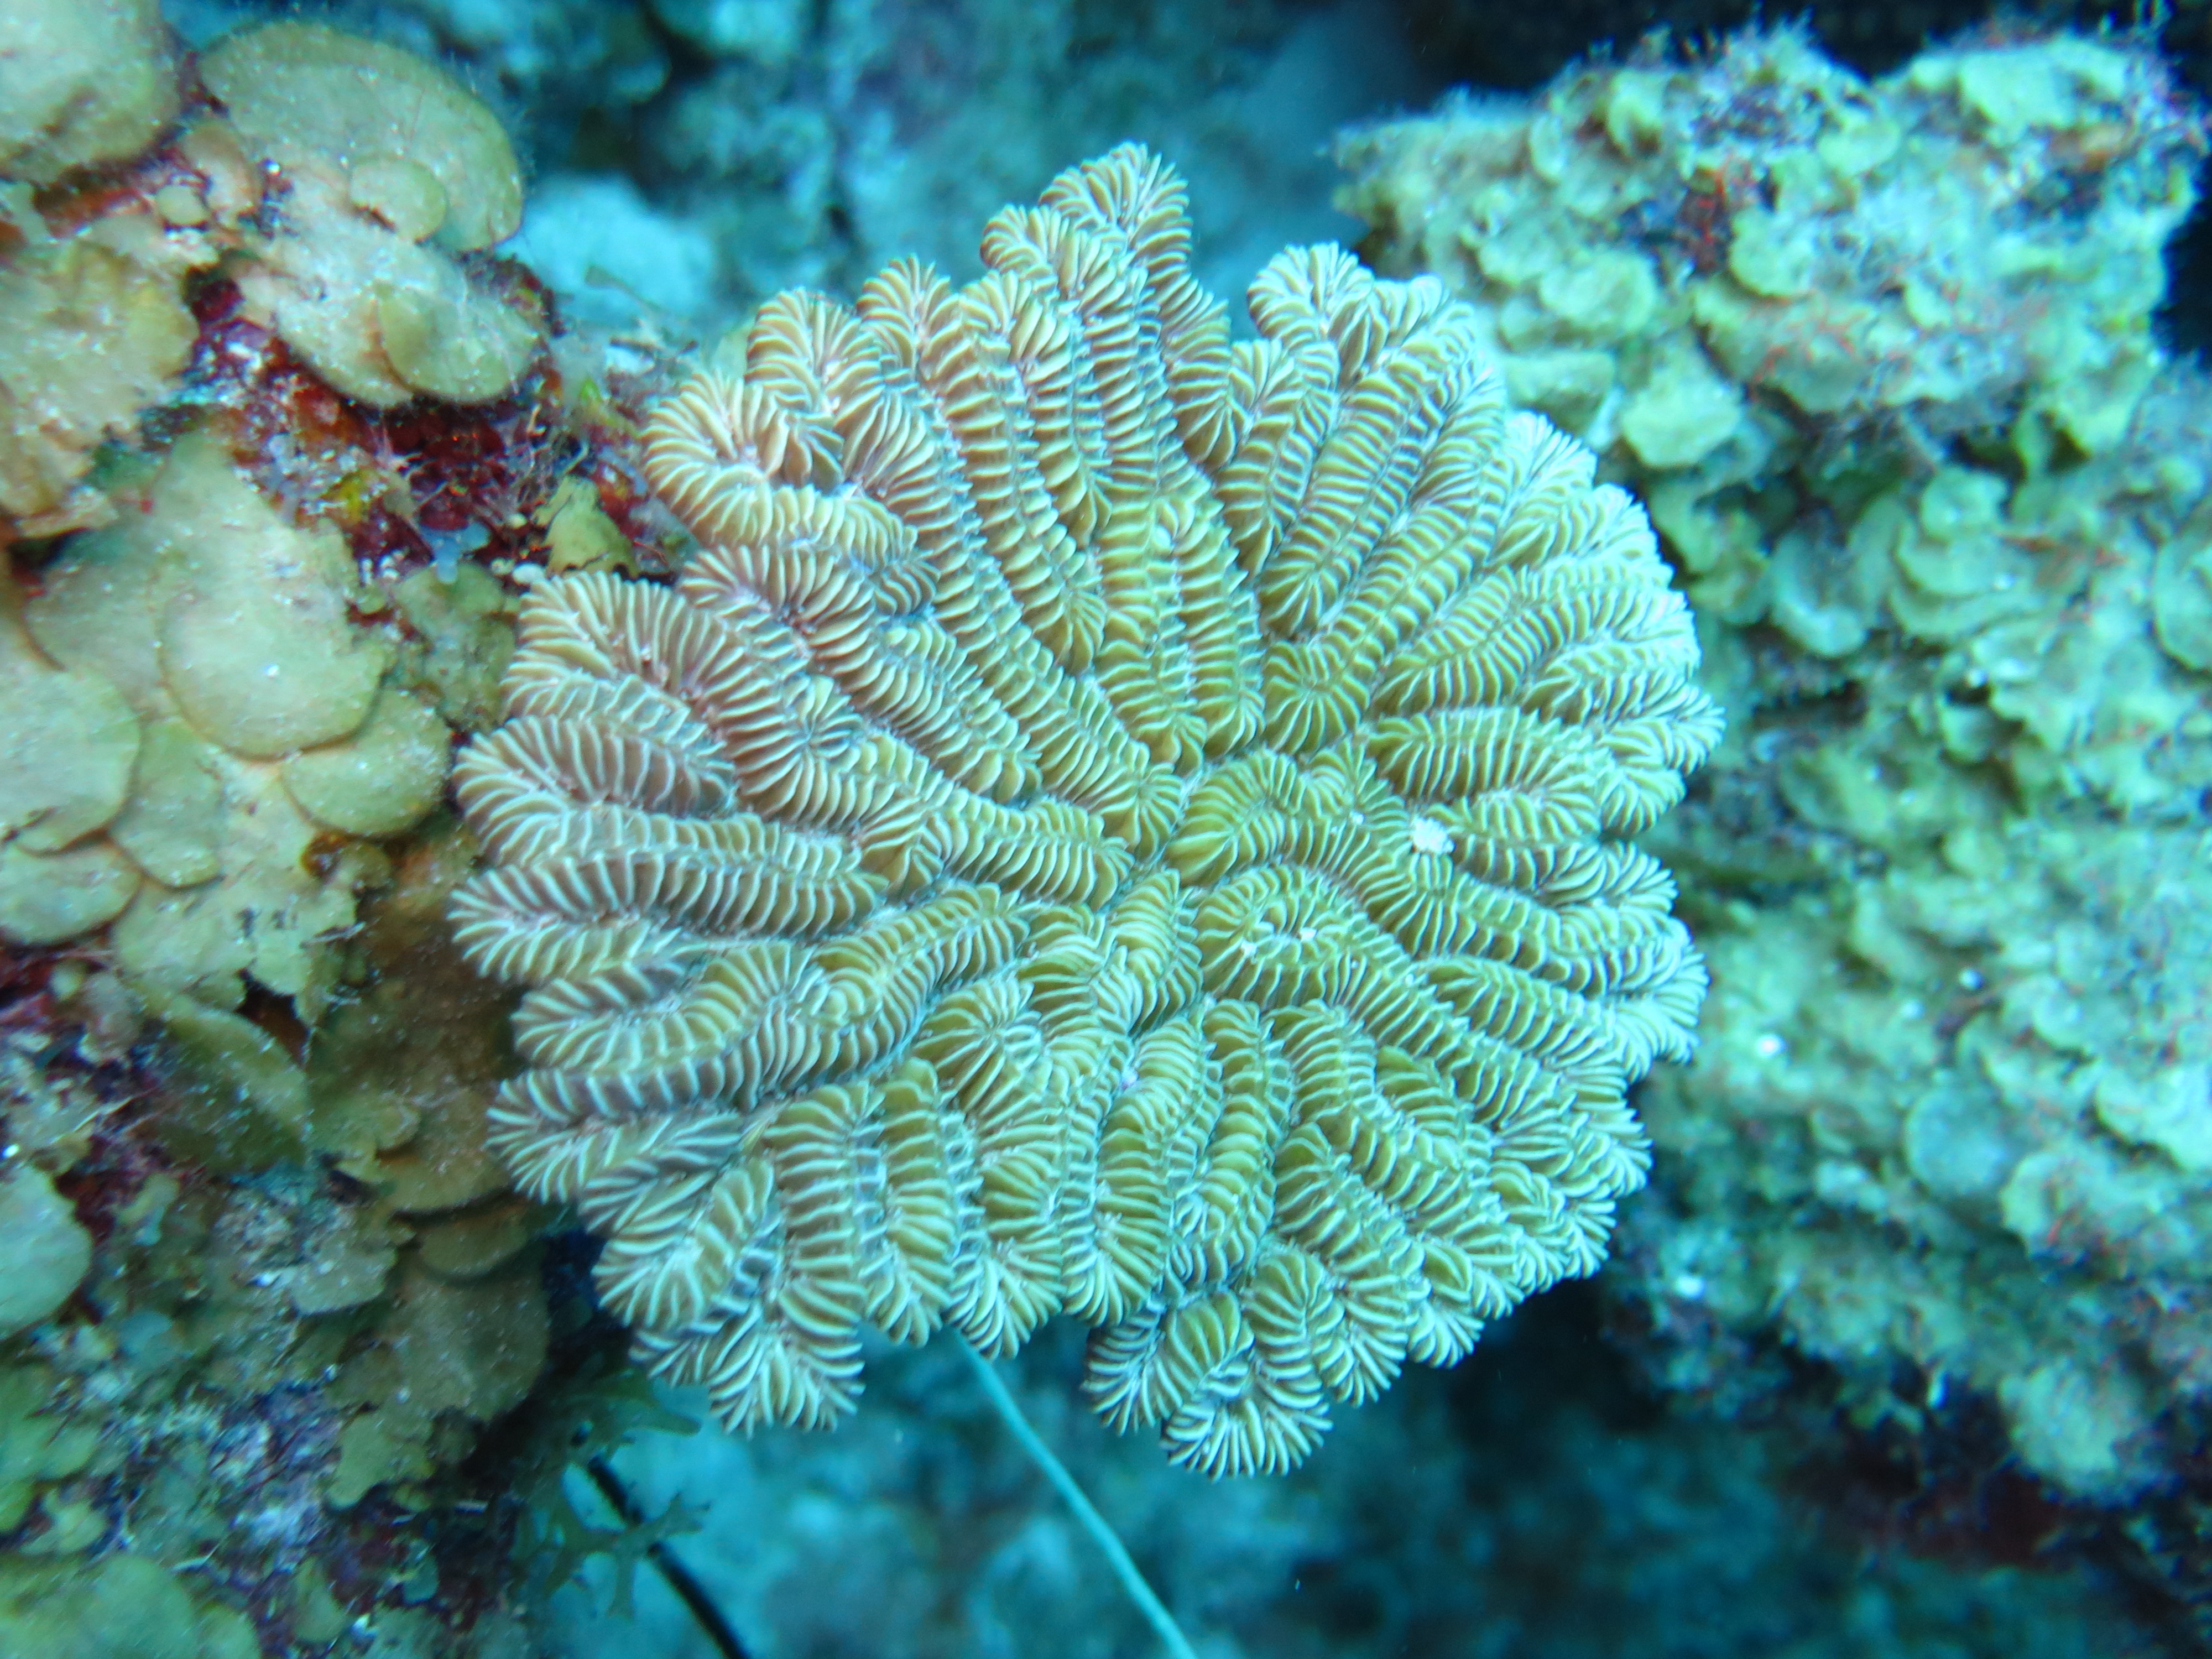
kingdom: Animalia
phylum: Cnidaria
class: Anthozoa
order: Scleractinia
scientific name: Scleractinia
